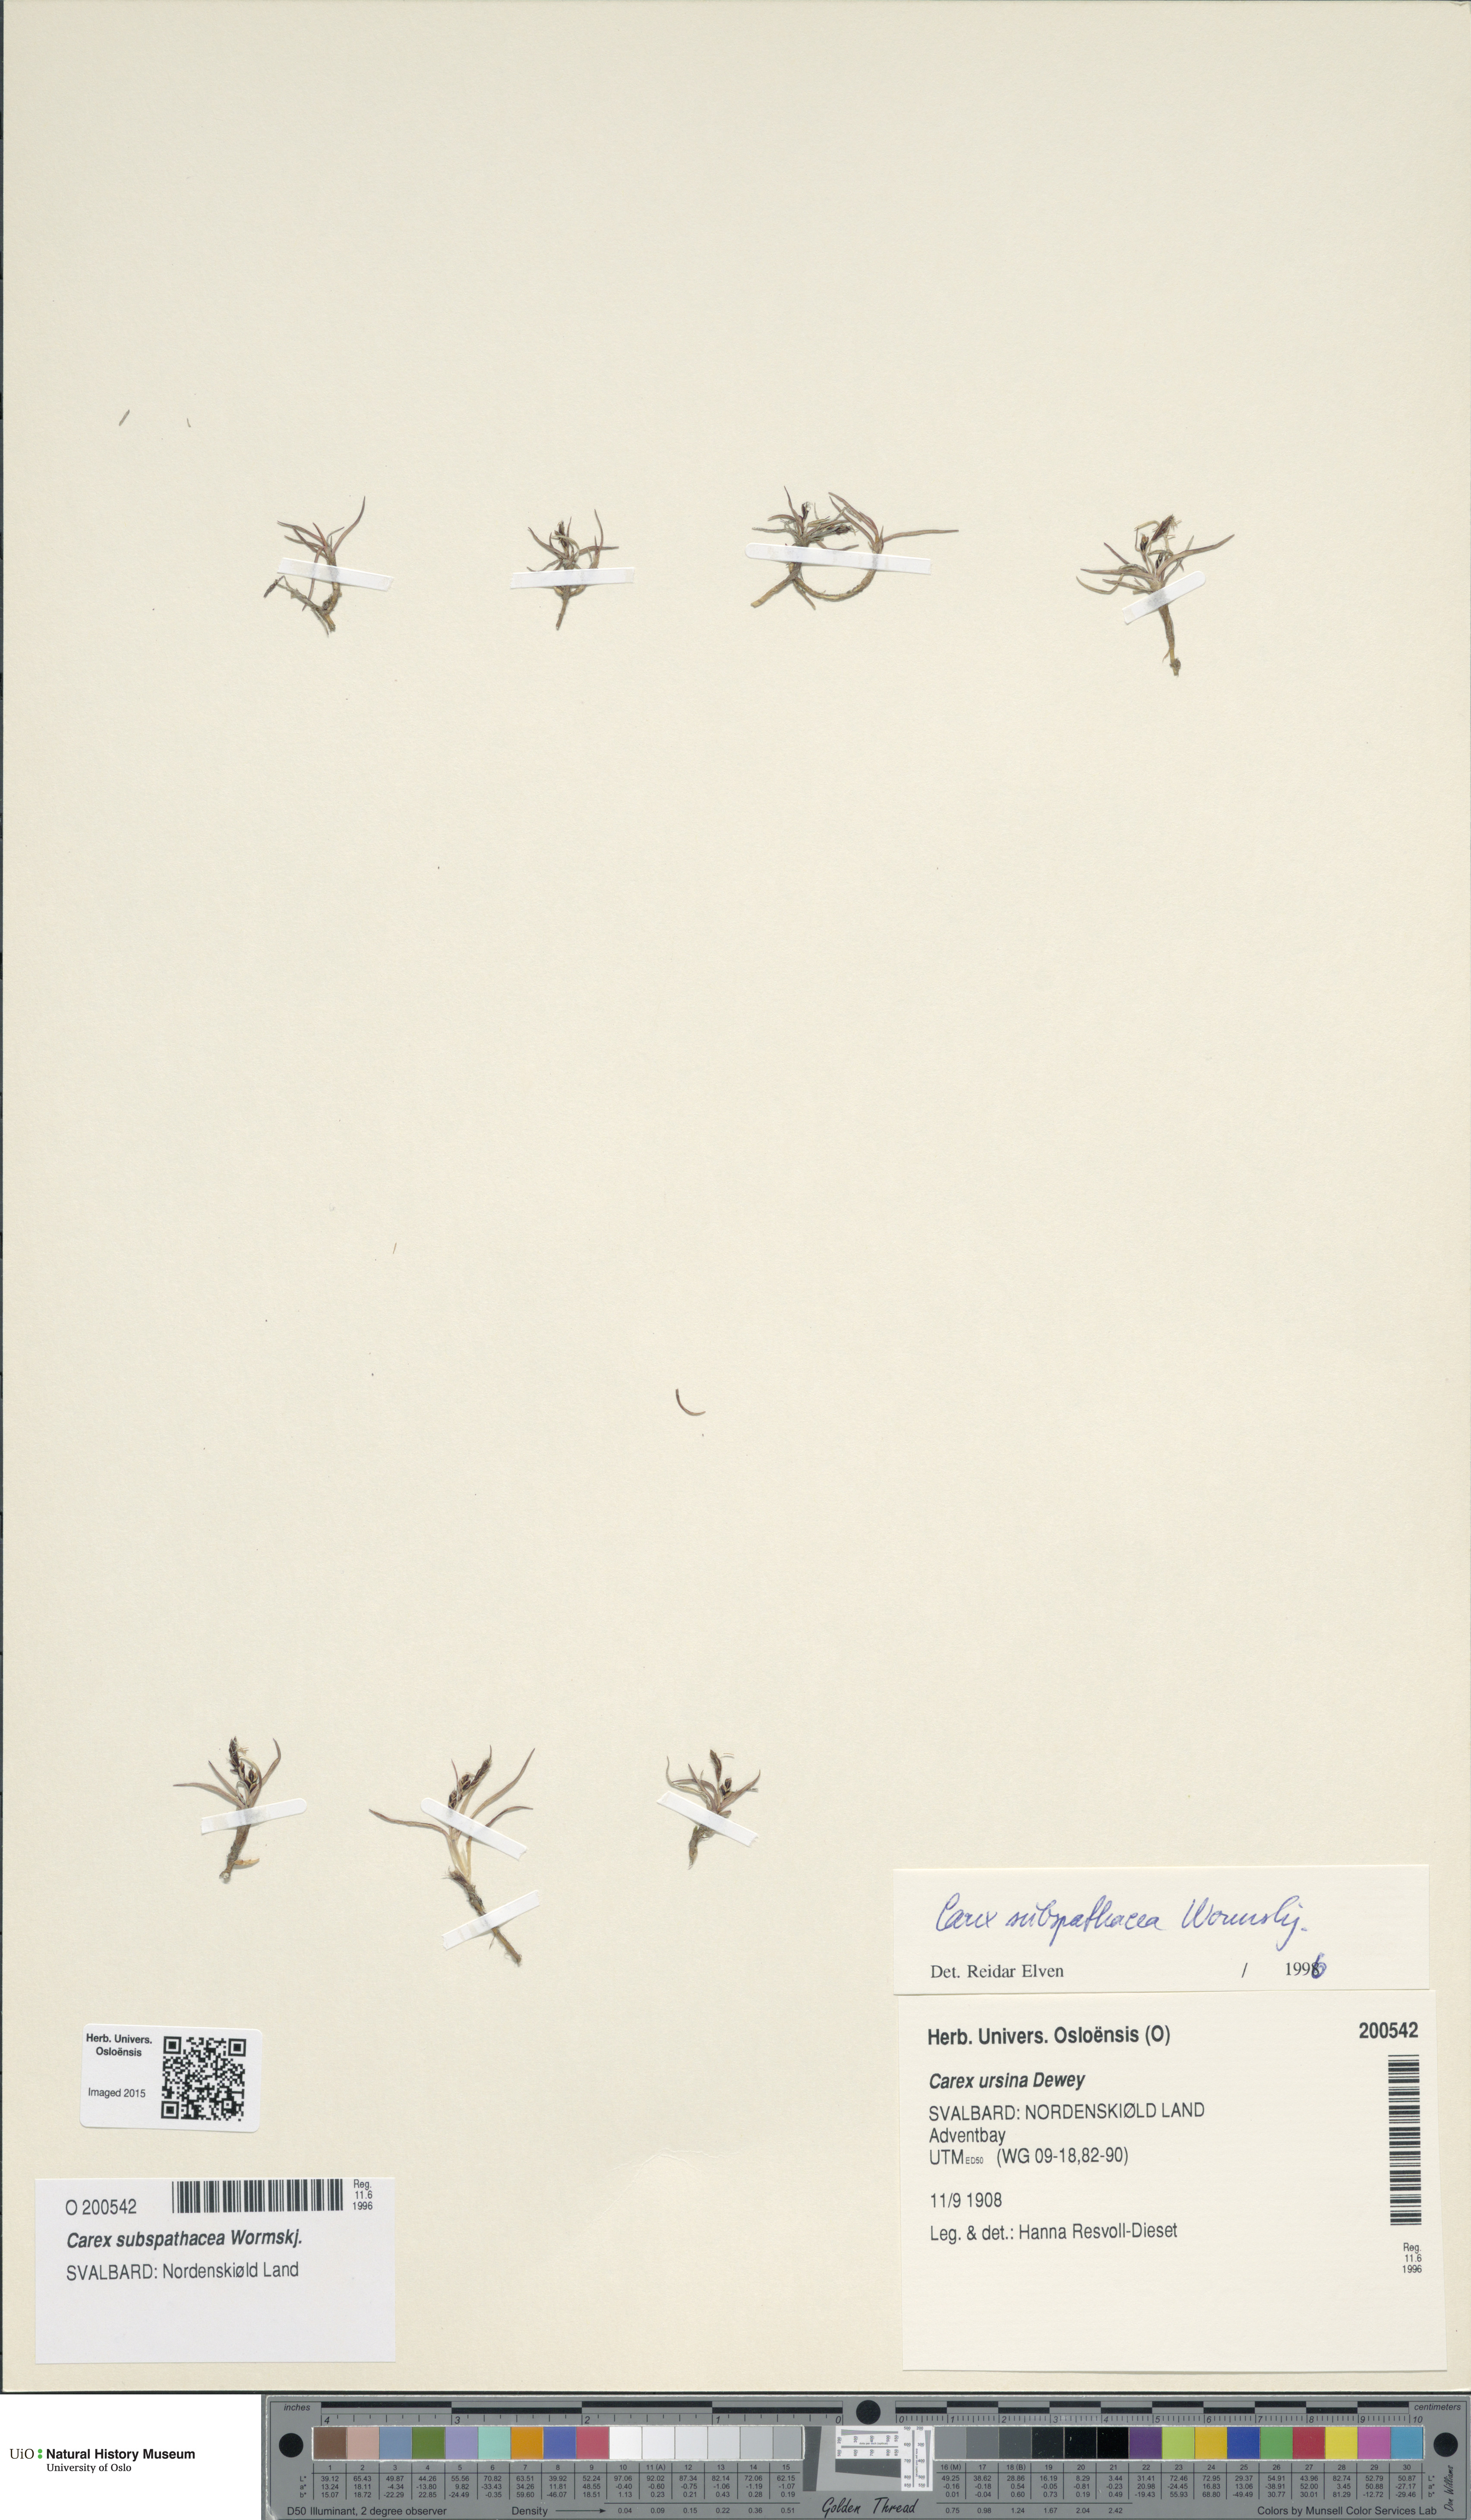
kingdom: Plantae
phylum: Tracheophyta
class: Liliopsida
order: Poales
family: Cyperaceae
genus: Carex
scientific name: Carex subspathacea
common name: Hoppner's sedge
